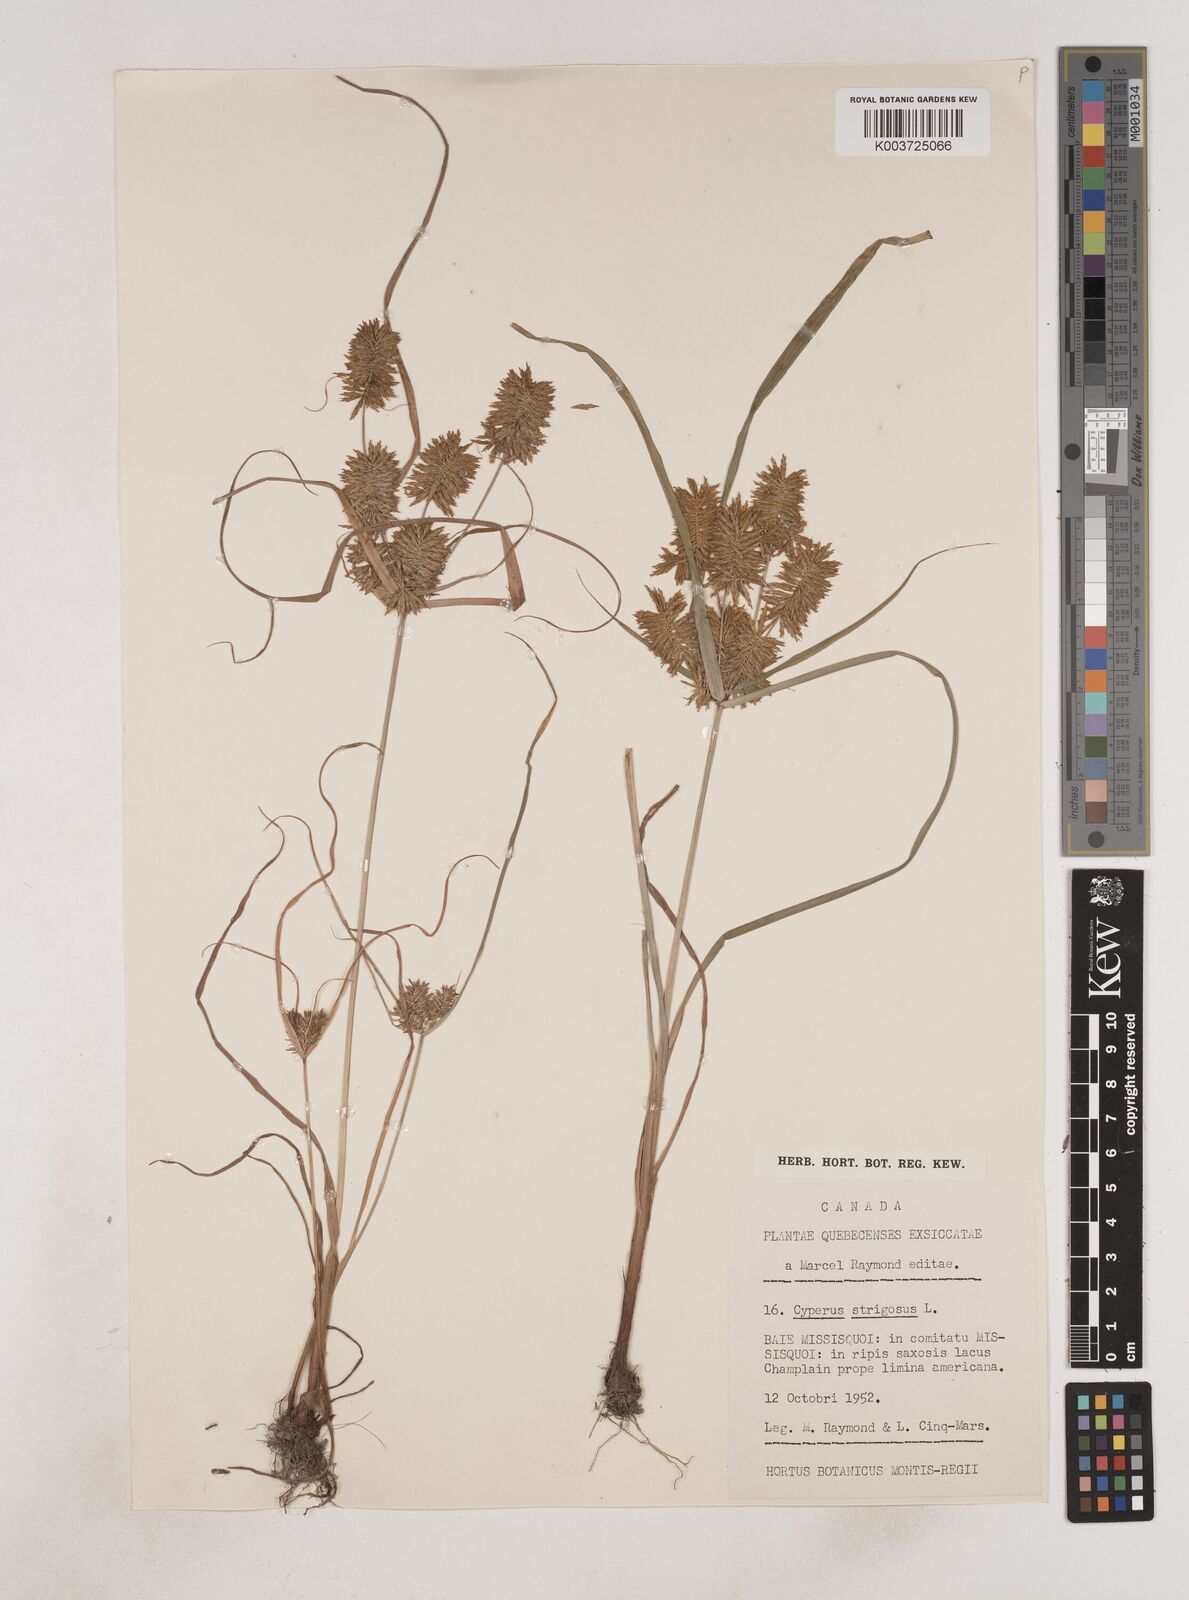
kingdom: Plantae
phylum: Tracheophyta
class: Liliopsida
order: Poales
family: Cyperaceae
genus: Cyperus
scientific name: Cyperus strigosus
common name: False nutsedge
